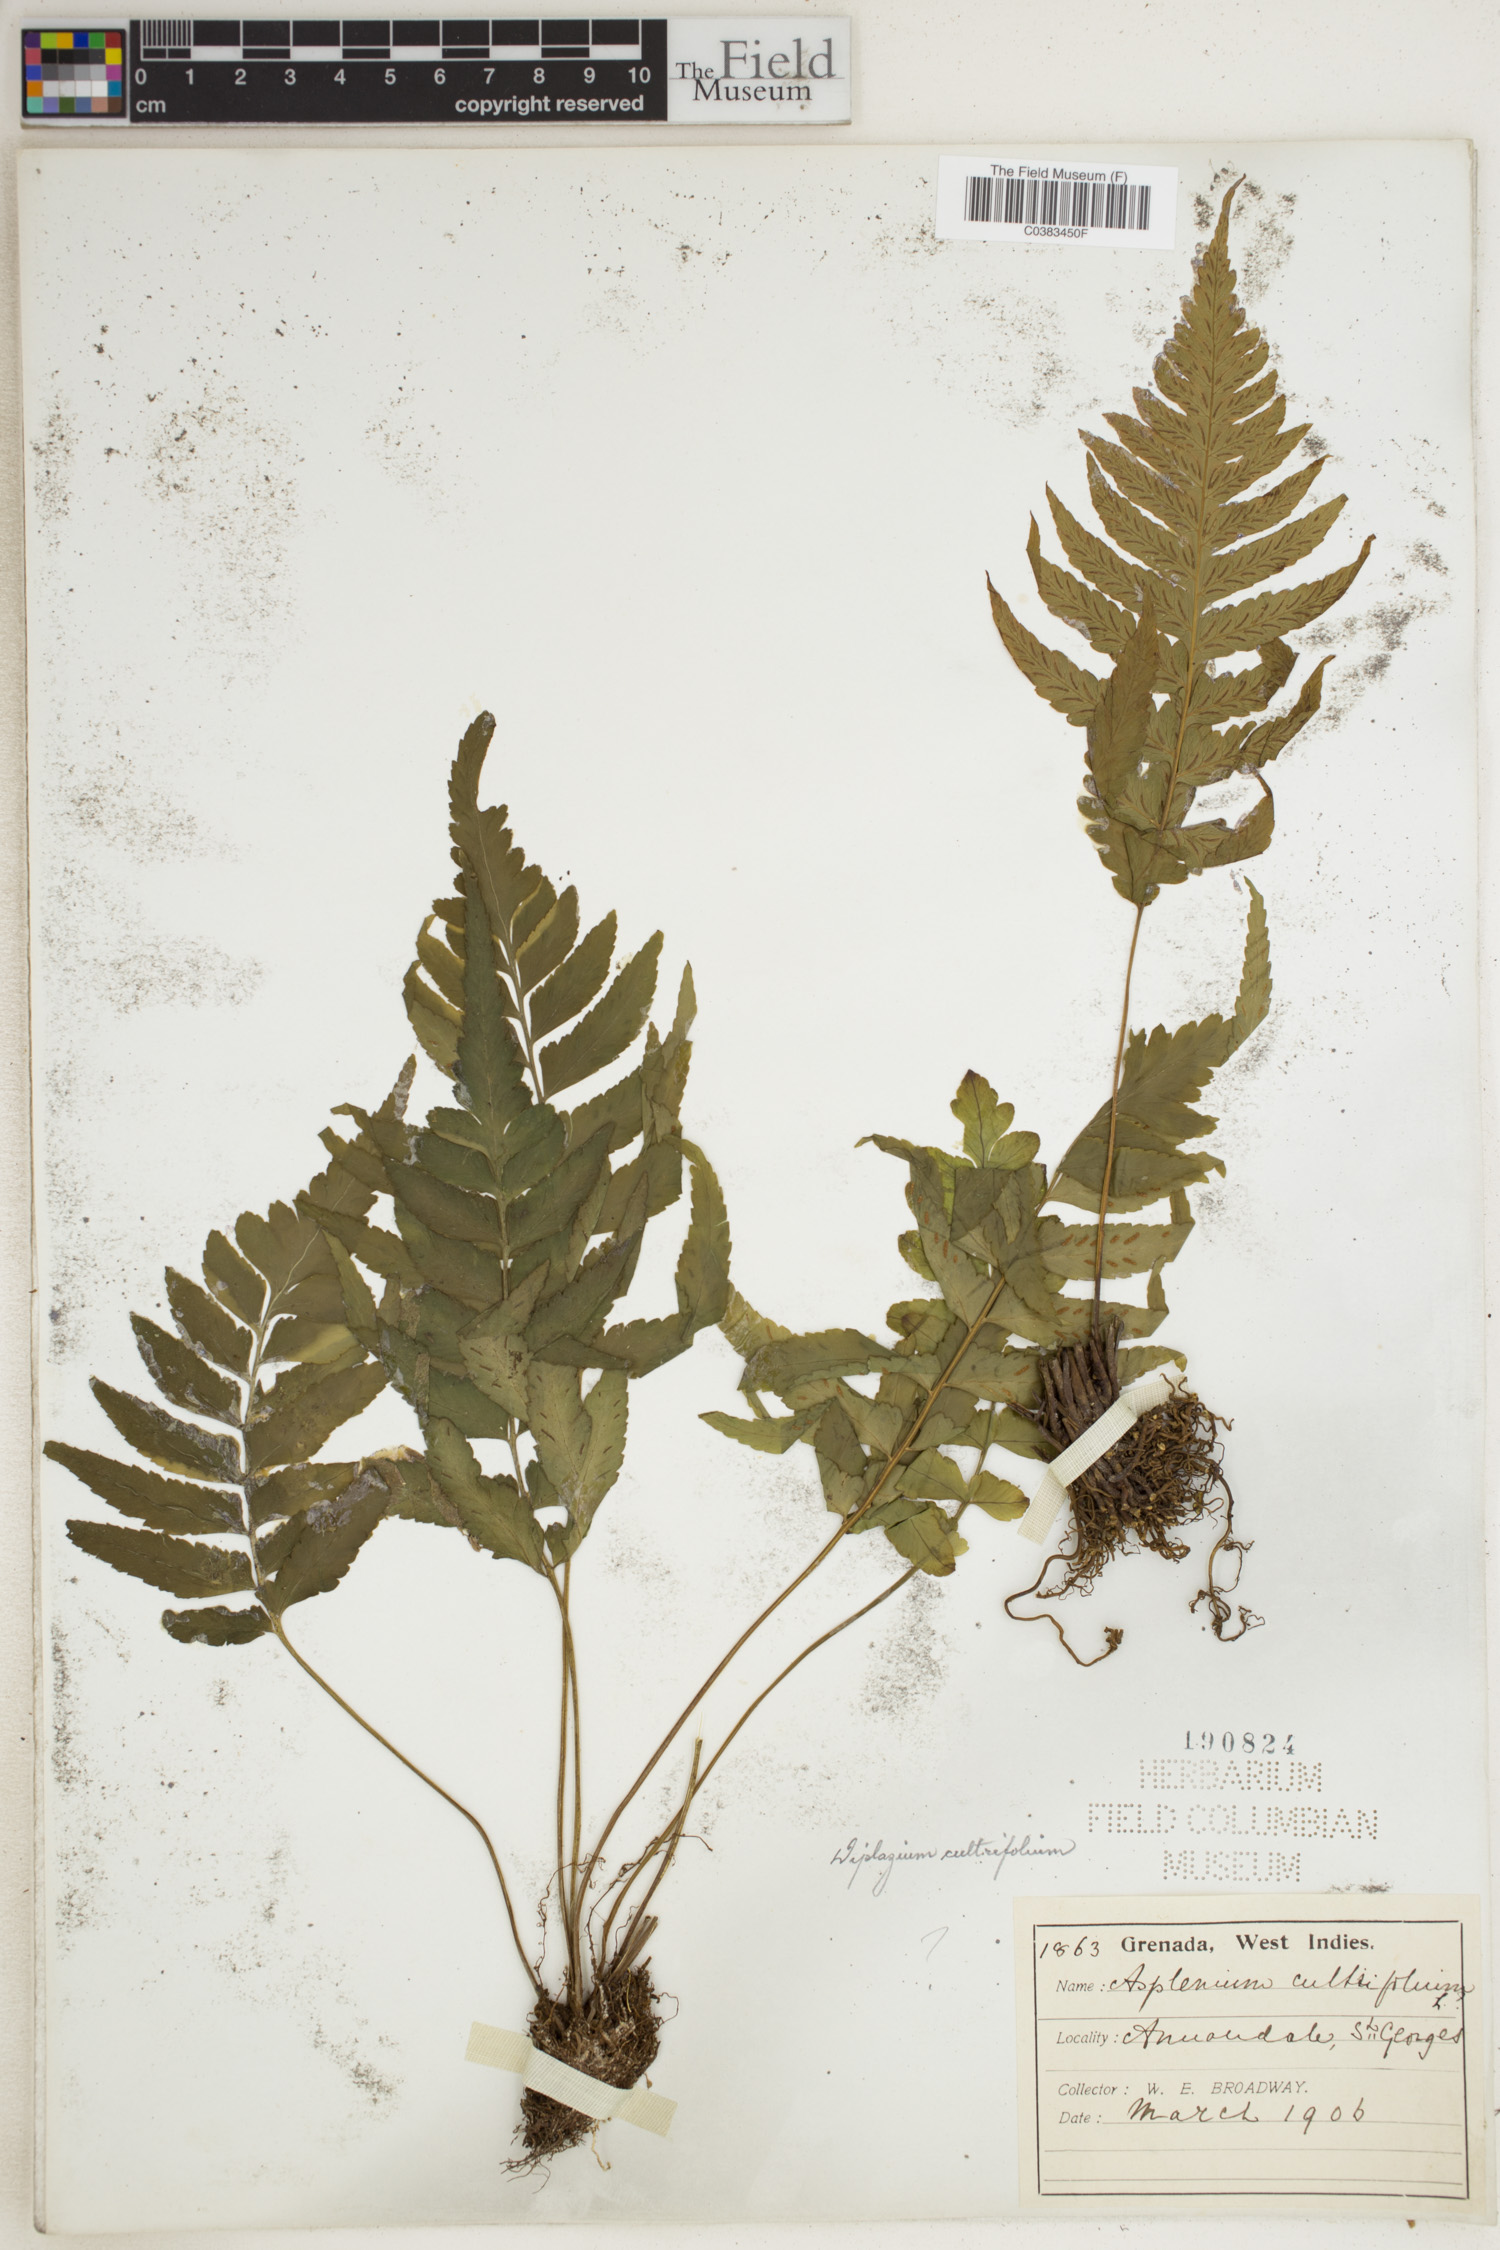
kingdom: Plantae
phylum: Tracheophyta
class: Polypodiopsida
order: Polypodiales
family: Athyriaceae
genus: Diplazium
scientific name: Diplazium cultrifolium
